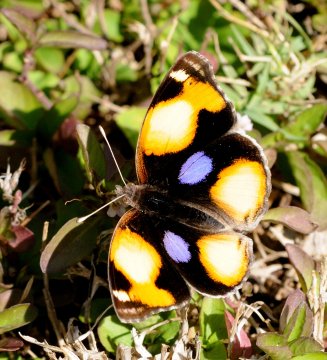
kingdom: Animalia
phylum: Arthropoda
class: Insecta
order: Lepidoptera
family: Nymphalidae
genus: Junonia
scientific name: Junonia hierta
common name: Yellow Pansy
